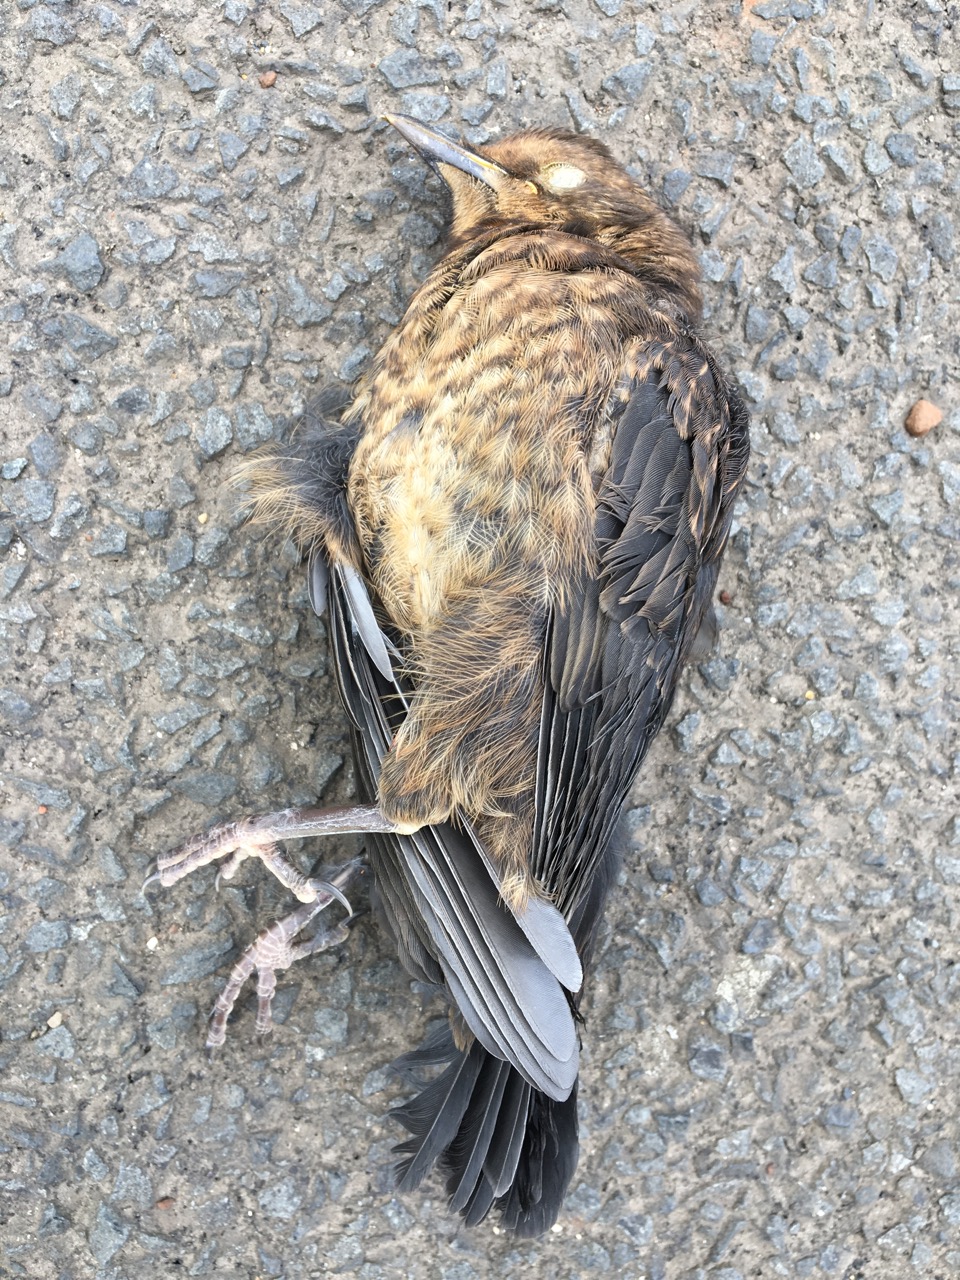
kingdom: Animalia
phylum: Chordata
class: Aves
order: Passeriformes
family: Turdidae
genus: Turdus
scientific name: Turdus merula
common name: Common blackbird
